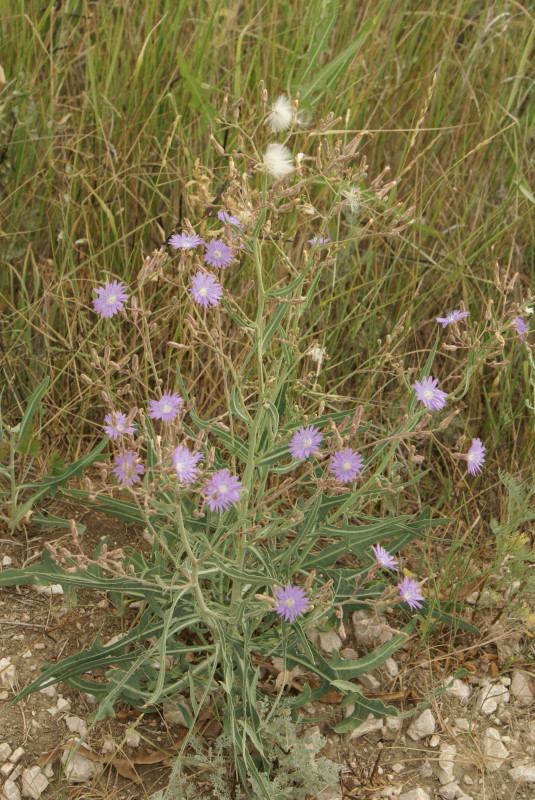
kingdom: Plantae
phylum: Tracheophyta
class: Magnoliopsida
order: Asterales
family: Asteraceae
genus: Xeranthemum
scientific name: Xeranthemum annuum
